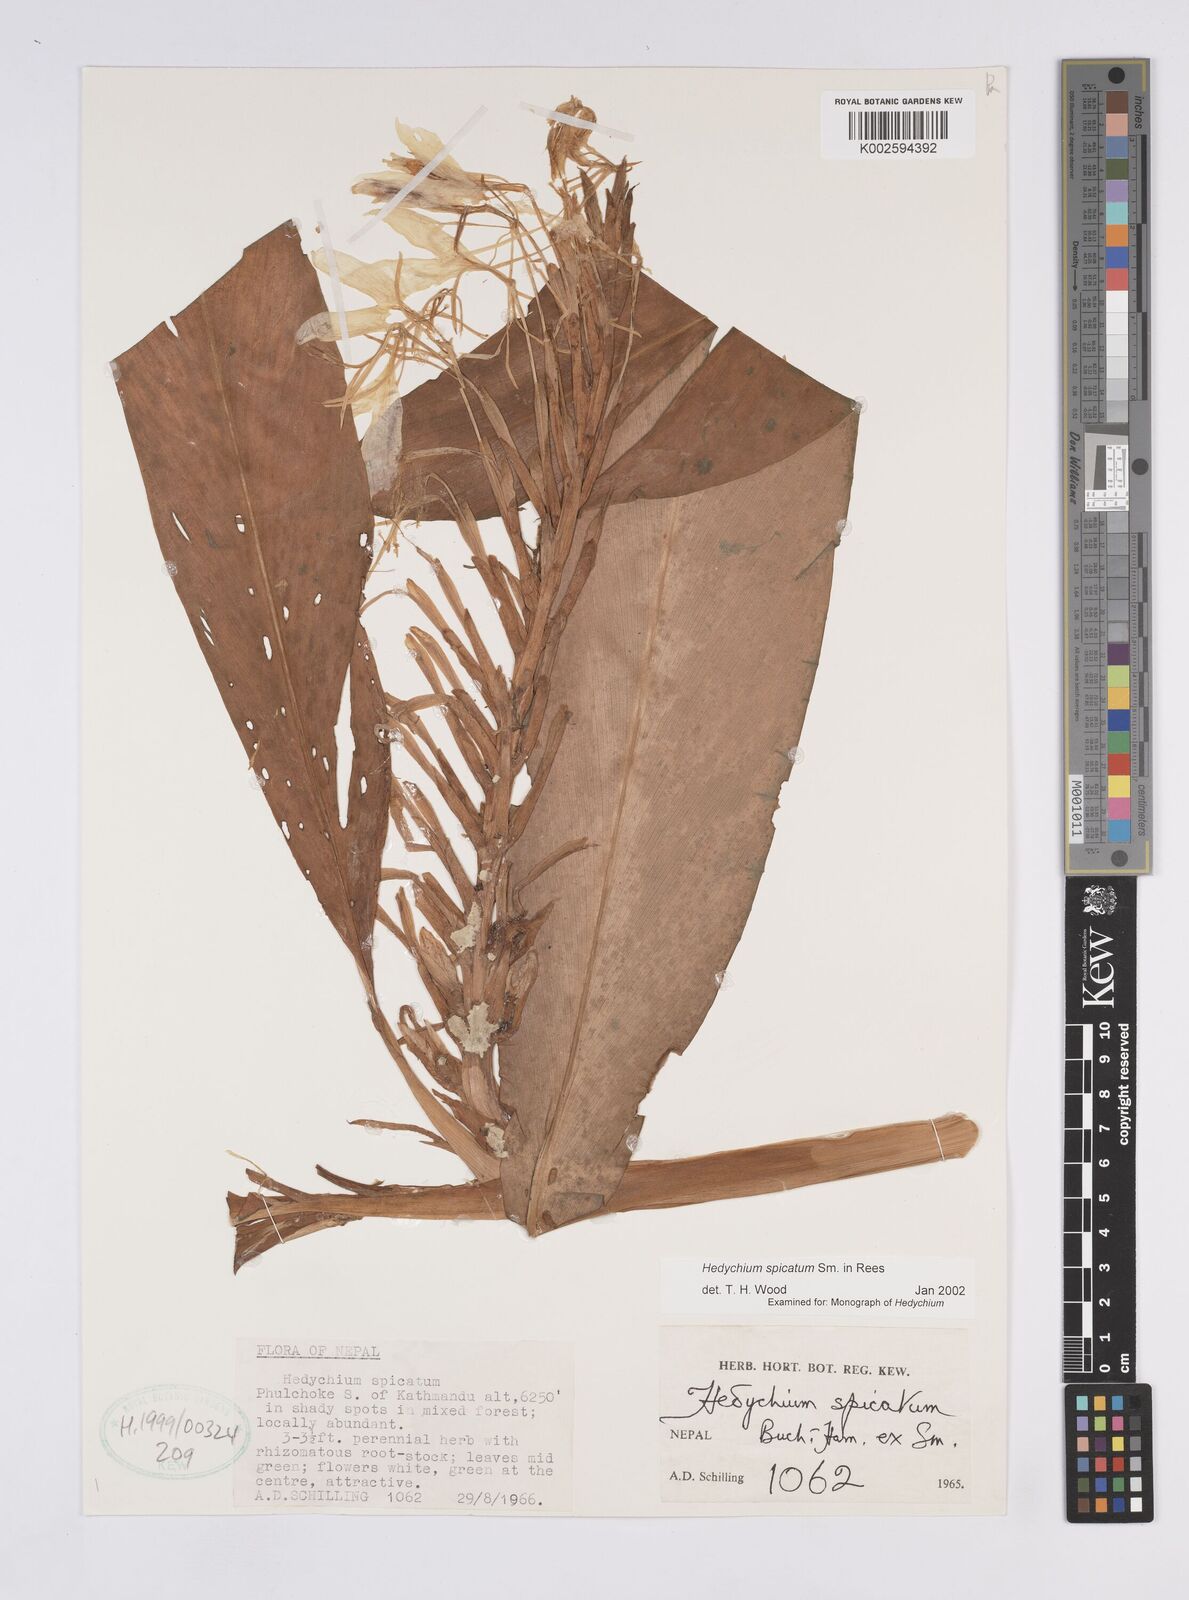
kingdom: Plantae
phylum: Tracheophyta
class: Liliopsida
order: Zingiberales
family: Zingiberaceae
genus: Hedychium
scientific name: Hedychium spicatum
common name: Spiked ginger-lily
